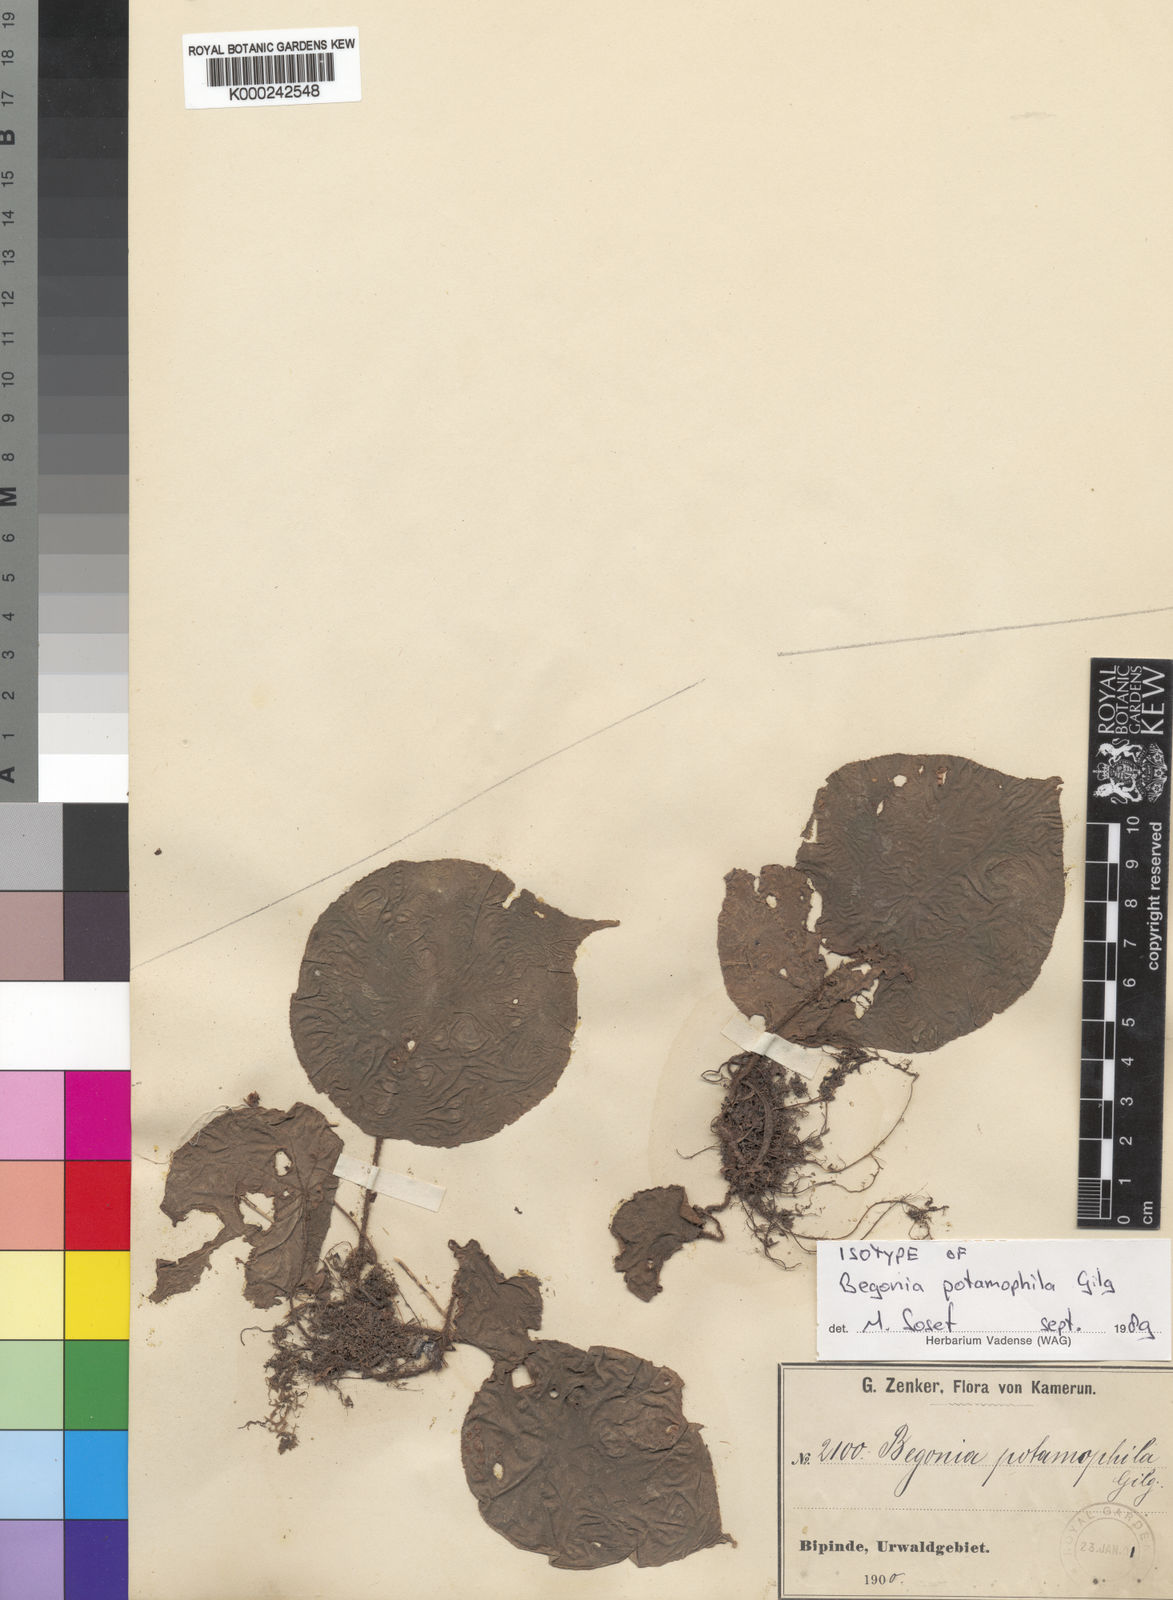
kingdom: Plantae
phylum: Tracheophyta
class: Magnoliopsida
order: Cucurbitales
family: Begoniaceae
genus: Begonia
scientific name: Begonia potamophila
